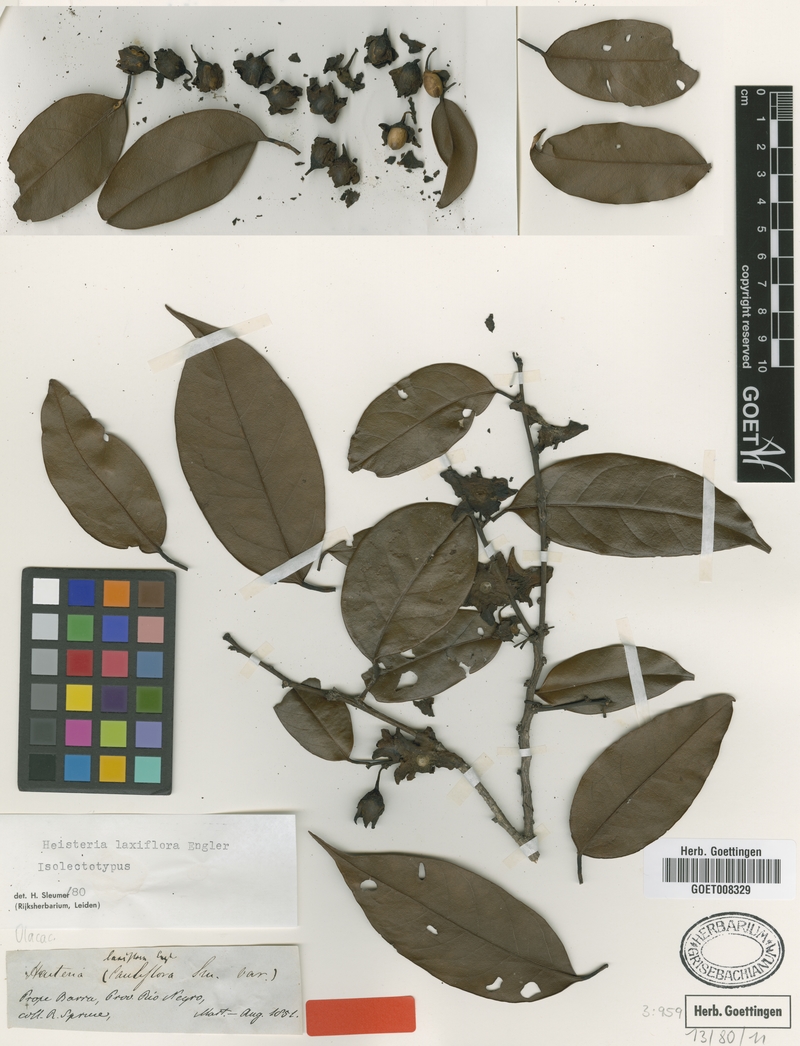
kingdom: Plantae
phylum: Tracheophyta
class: Magnoliopsida
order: Santalales
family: Erythropalaceae
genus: Heisteria
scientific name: Heisteria laxiflora
